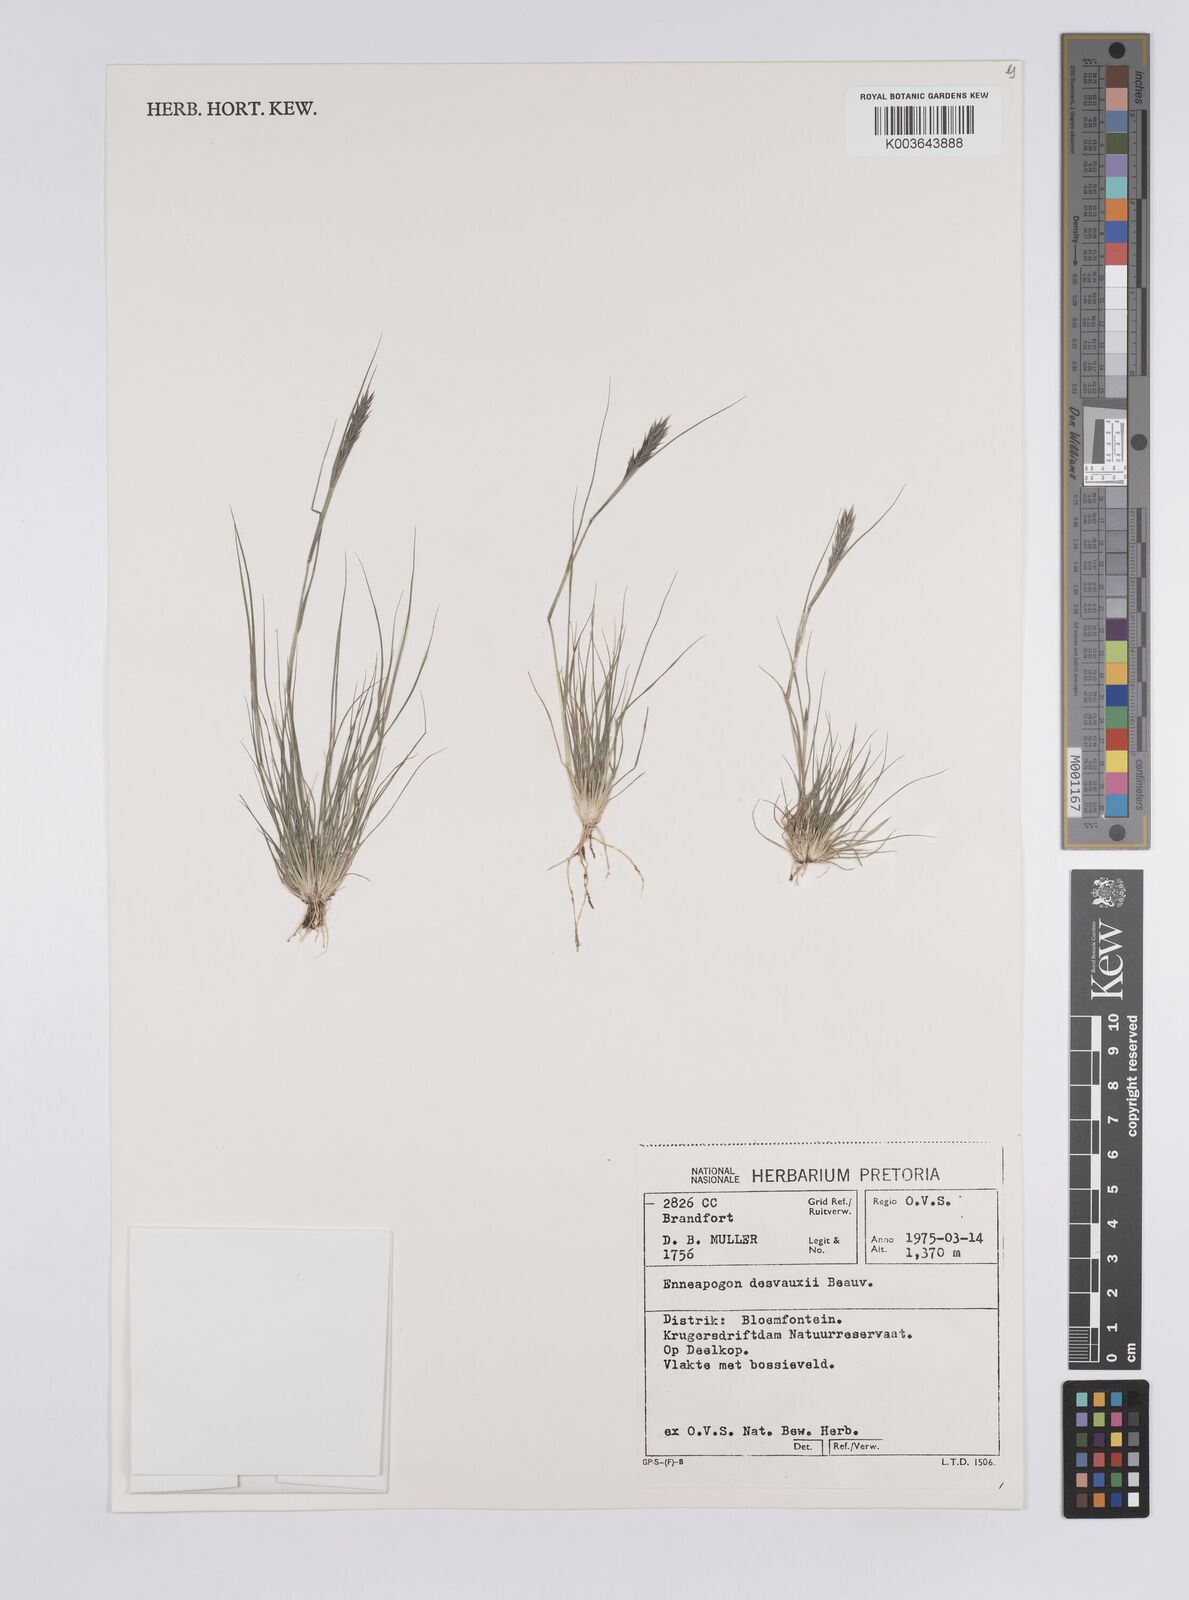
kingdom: Plantae
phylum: Tracheophyta
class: Liliopsida
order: Poales
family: Poaceae
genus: Enneapogon
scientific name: Enneapogon desvauxii
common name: Feather pappus grass
